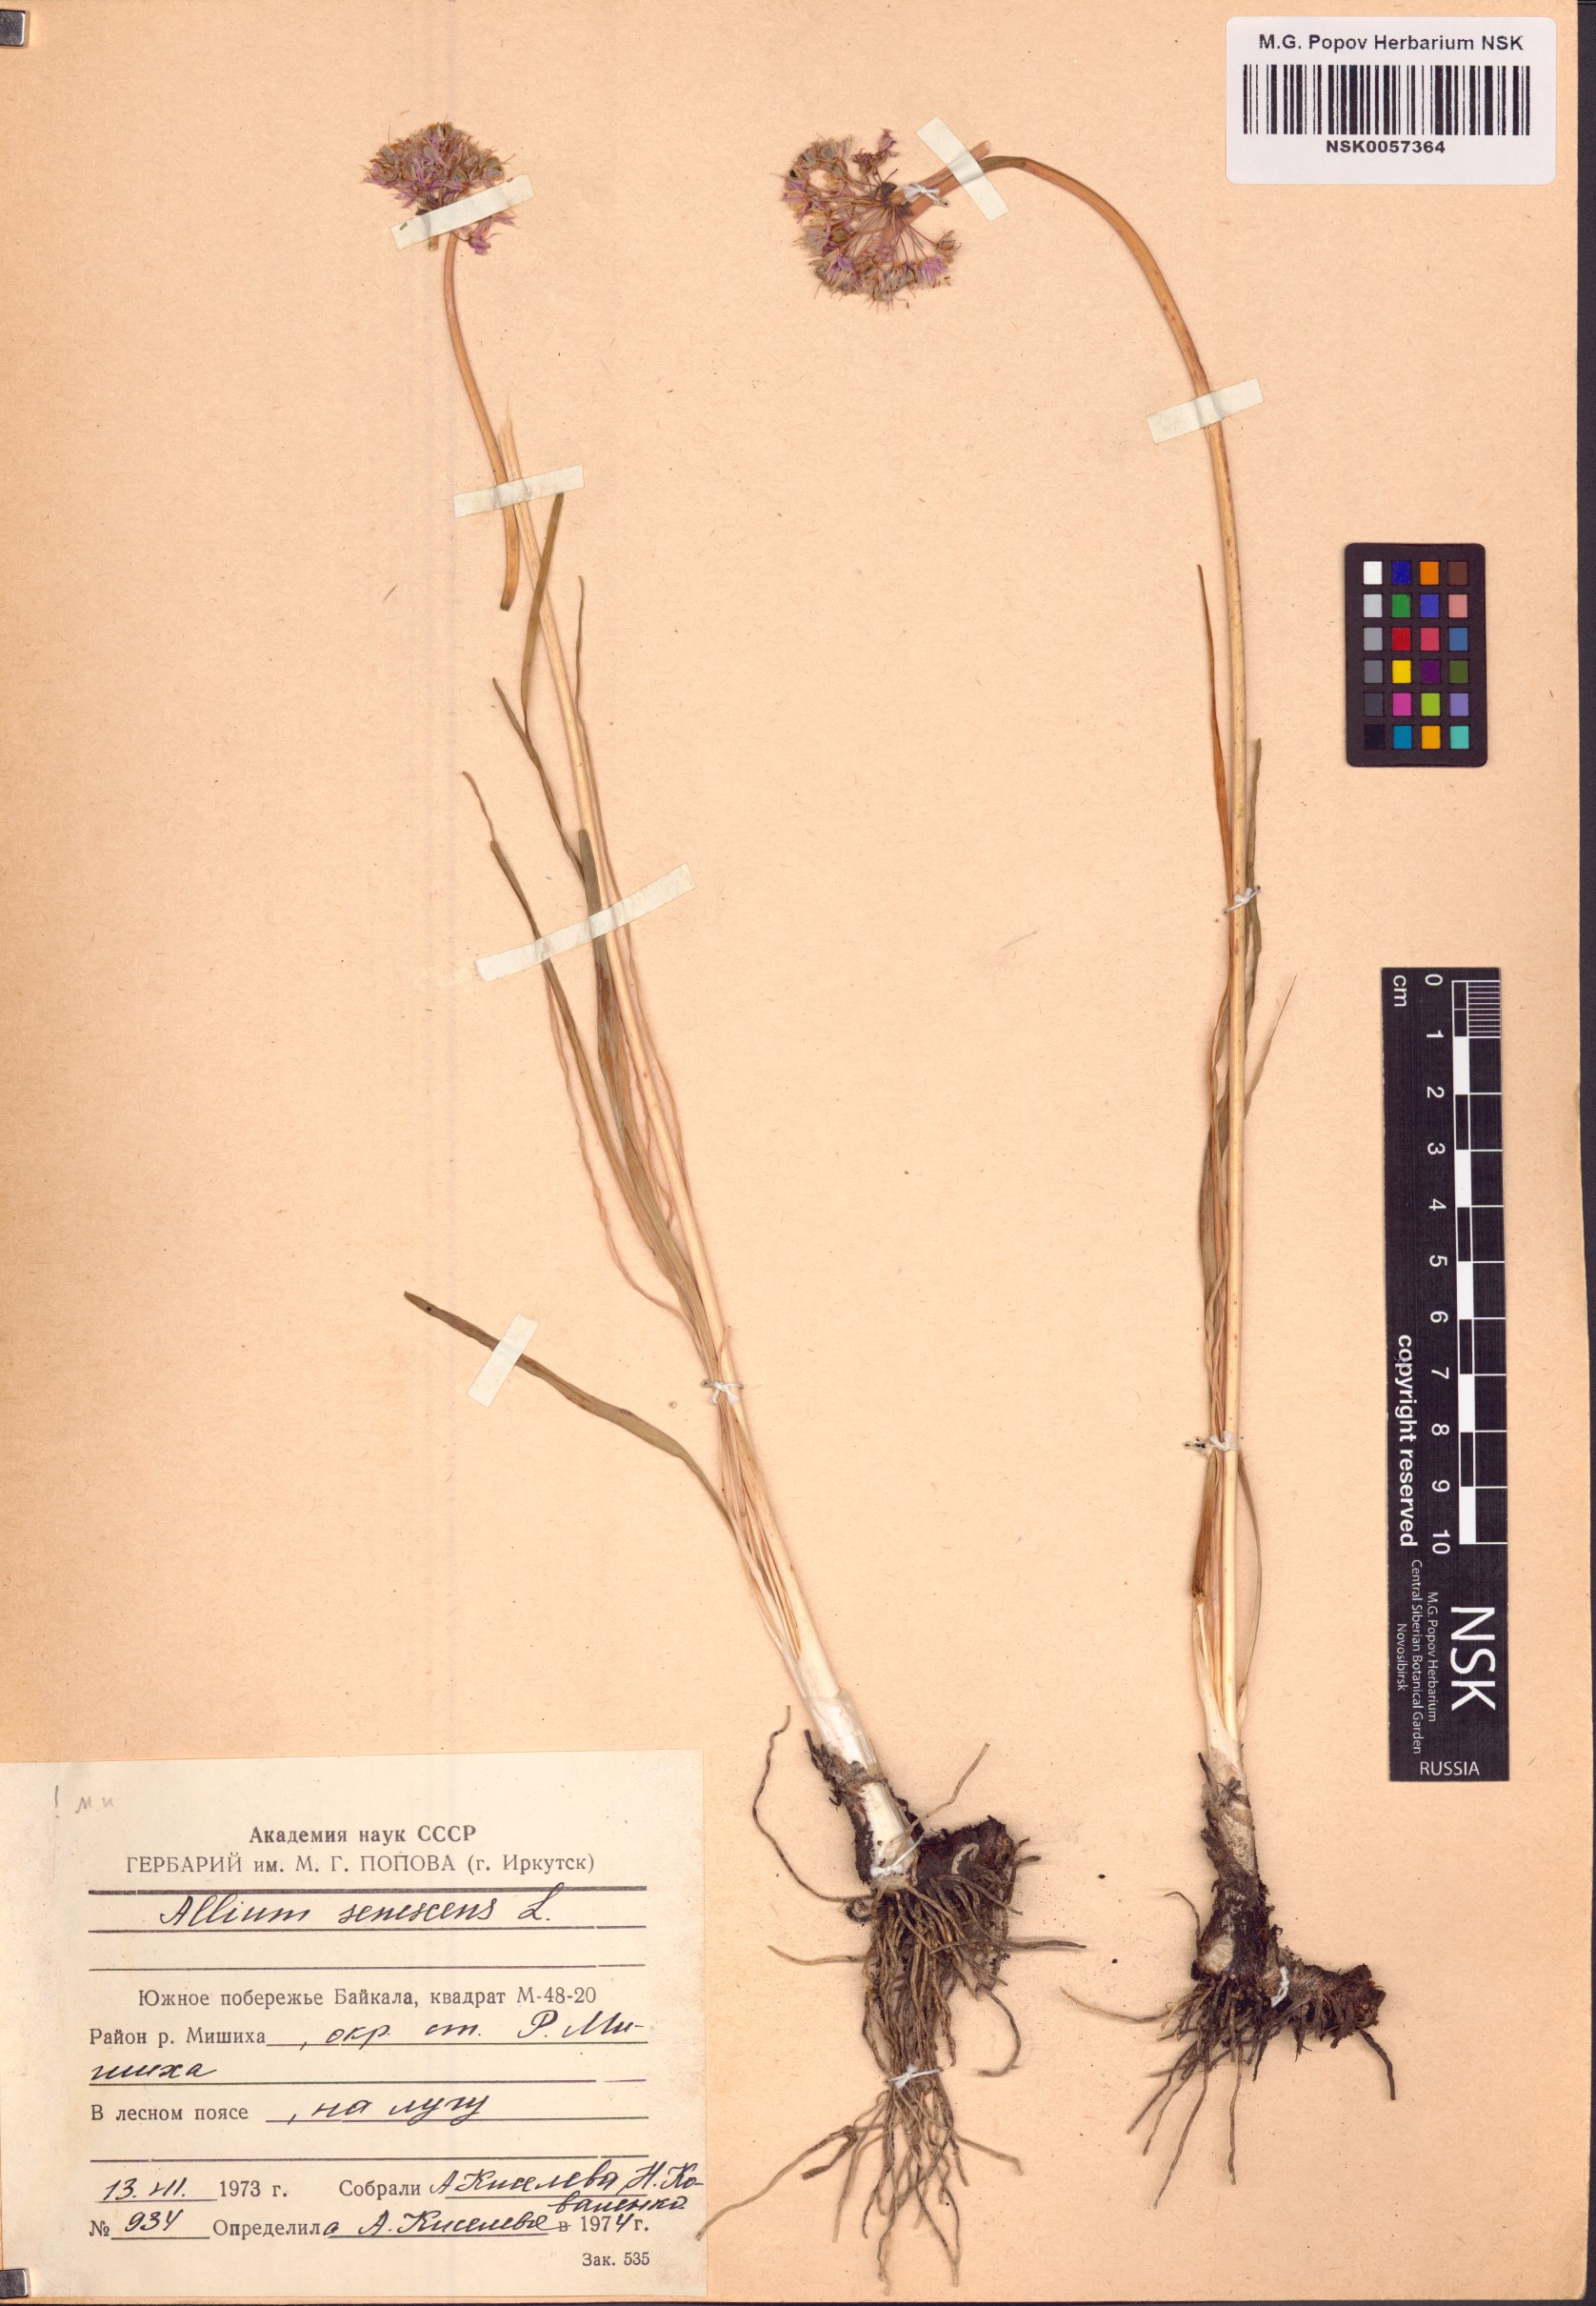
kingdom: Plantae
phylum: Tracheophyta
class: Liliopsida
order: Asparagales
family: Amaryllidaceae
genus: Allium
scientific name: Allium senescens
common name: German garlic
